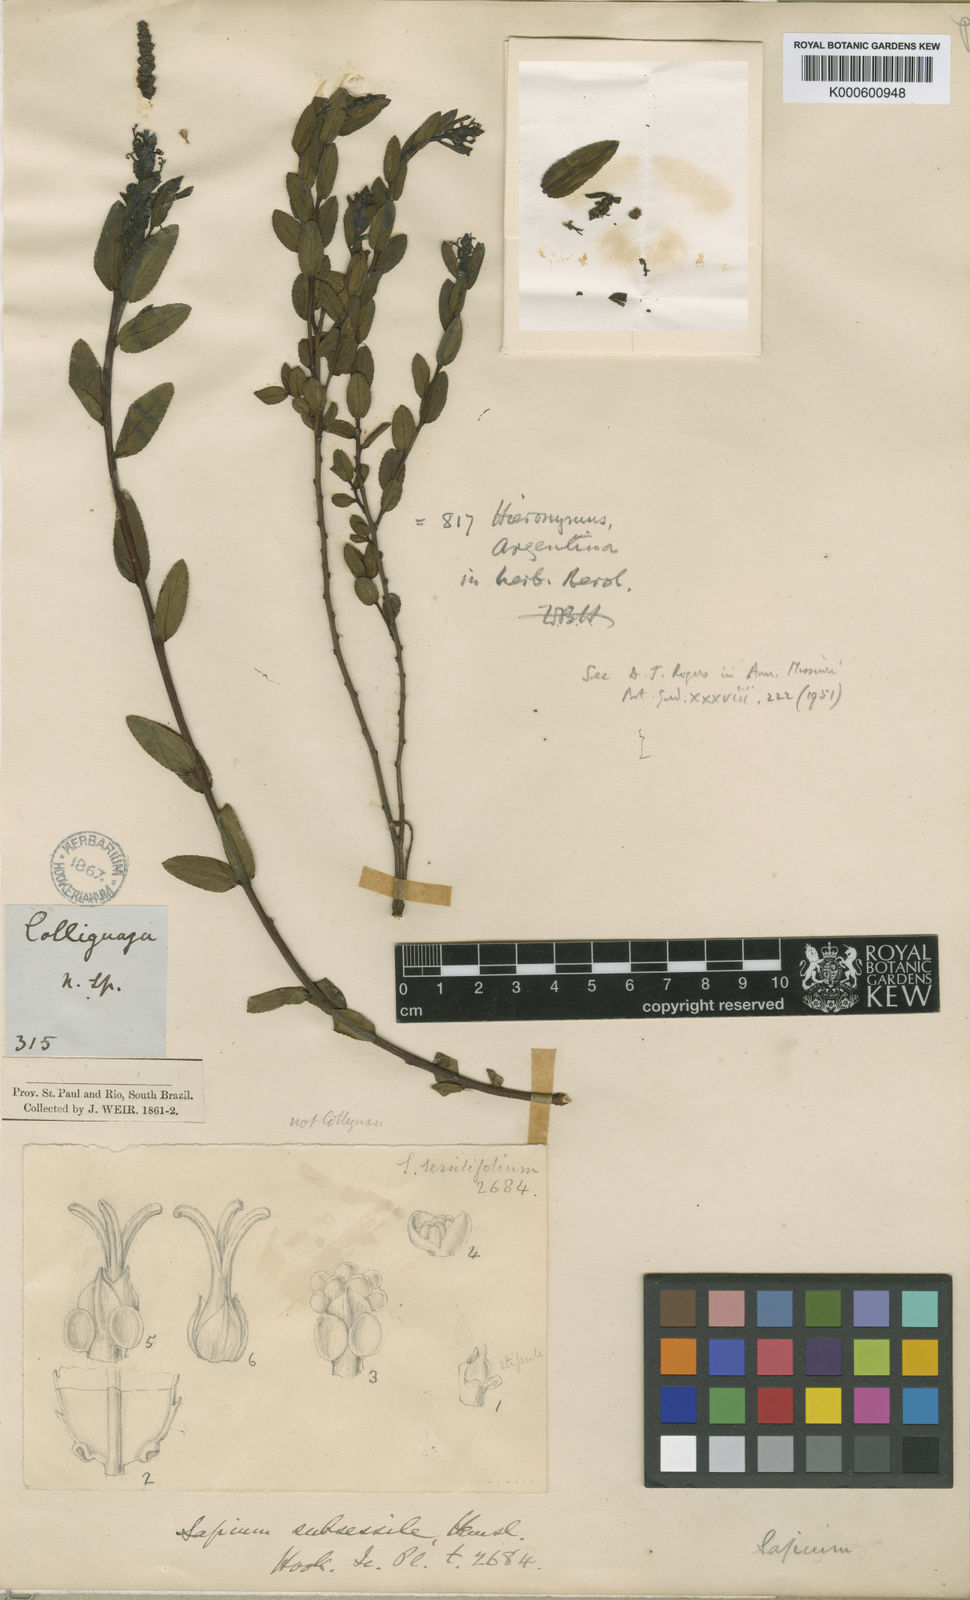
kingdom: Plantae
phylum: Tracheophyta
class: Magnoliopsida
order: Malpighiales
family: Euphorbiaceae
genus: Stillingia
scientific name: Stillingia bodenbenderi
